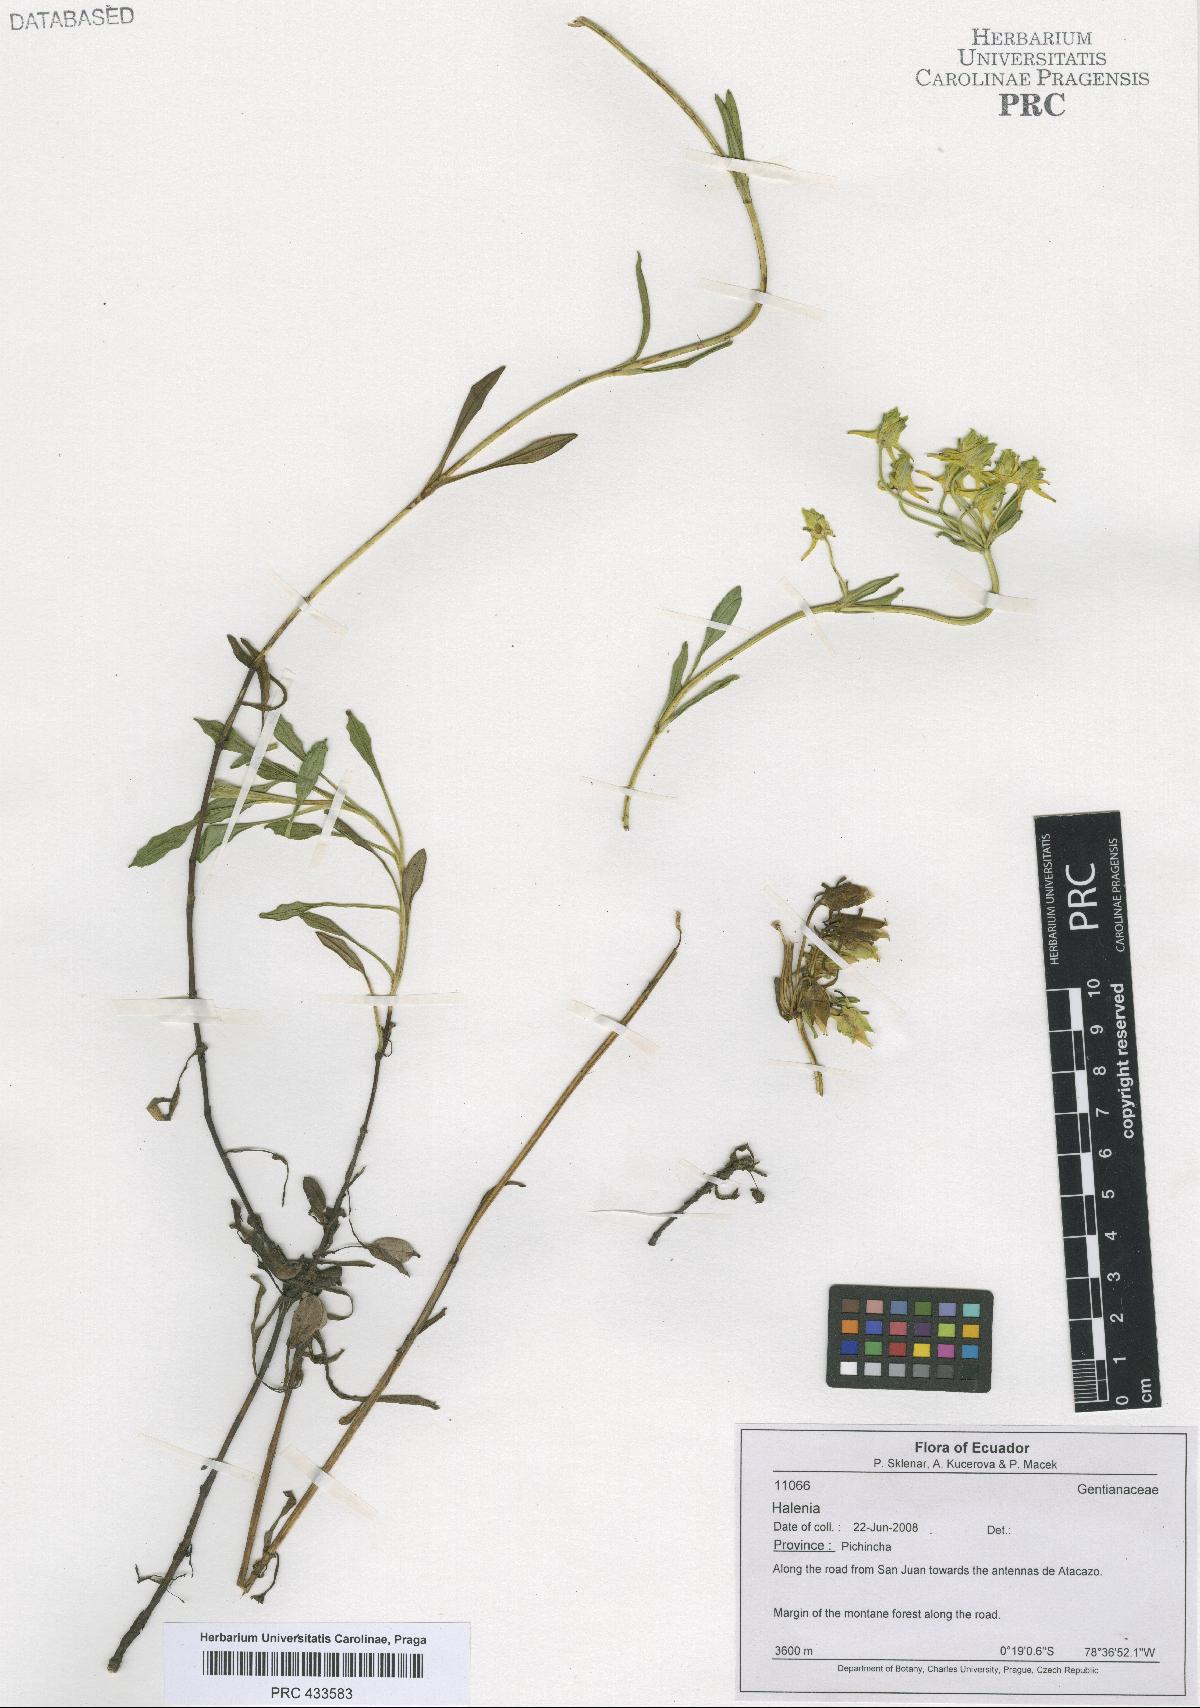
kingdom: Plantae
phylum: Tracheophyta
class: Magnoliopsida
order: Gentianales
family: Gentianaceae
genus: Halenia
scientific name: Halenia
